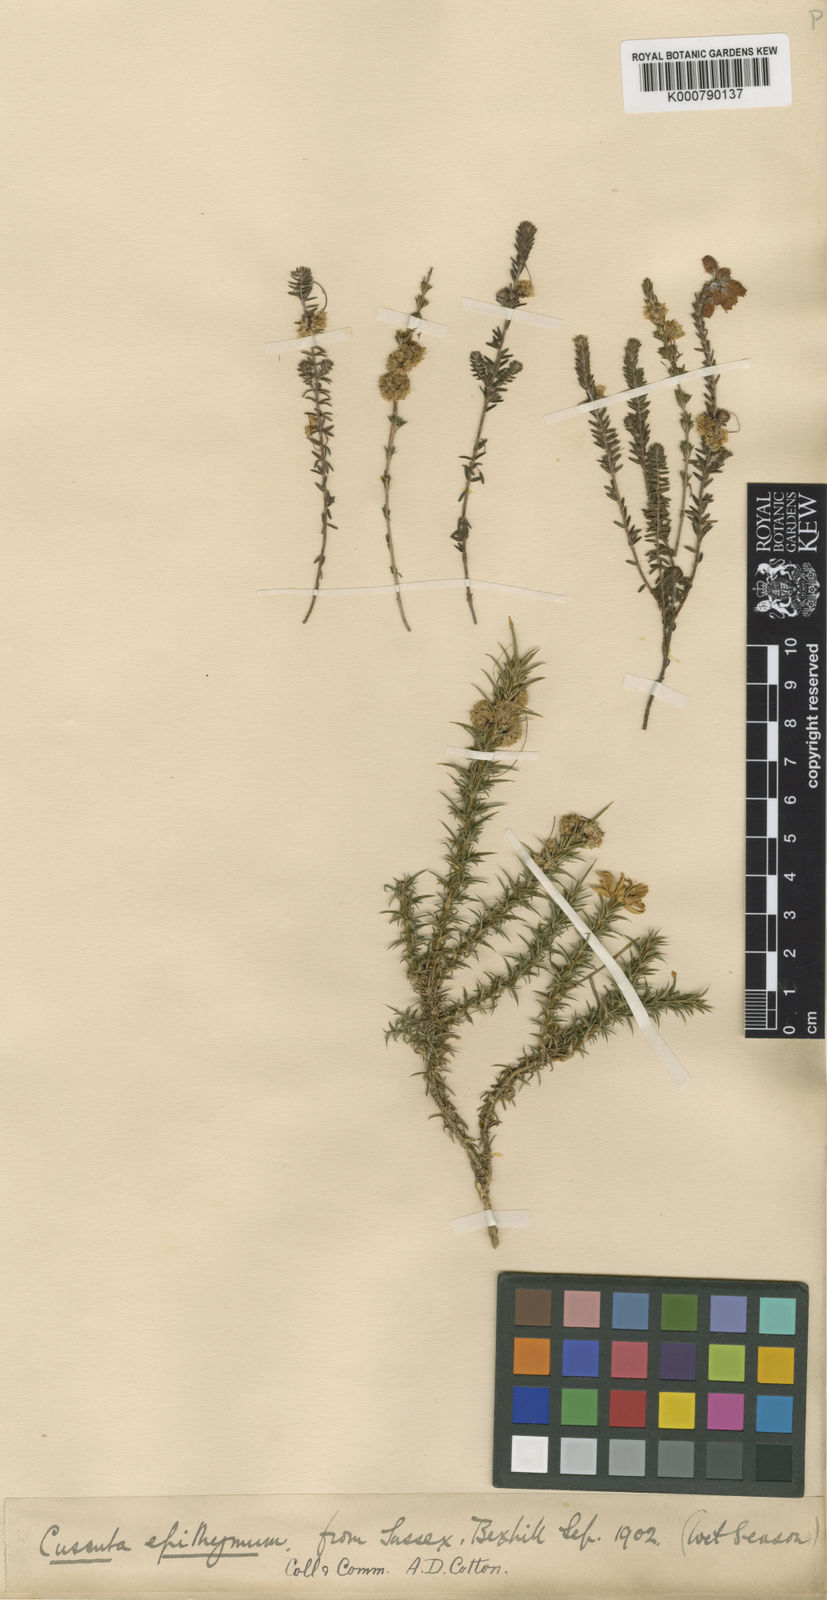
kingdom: Plantae
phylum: Tracheophyta
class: Magnoliopsida
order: Solanales
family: Convolvulaceae
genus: Cuscuta
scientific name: Cuscuta epithymum
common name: Clover dodder
